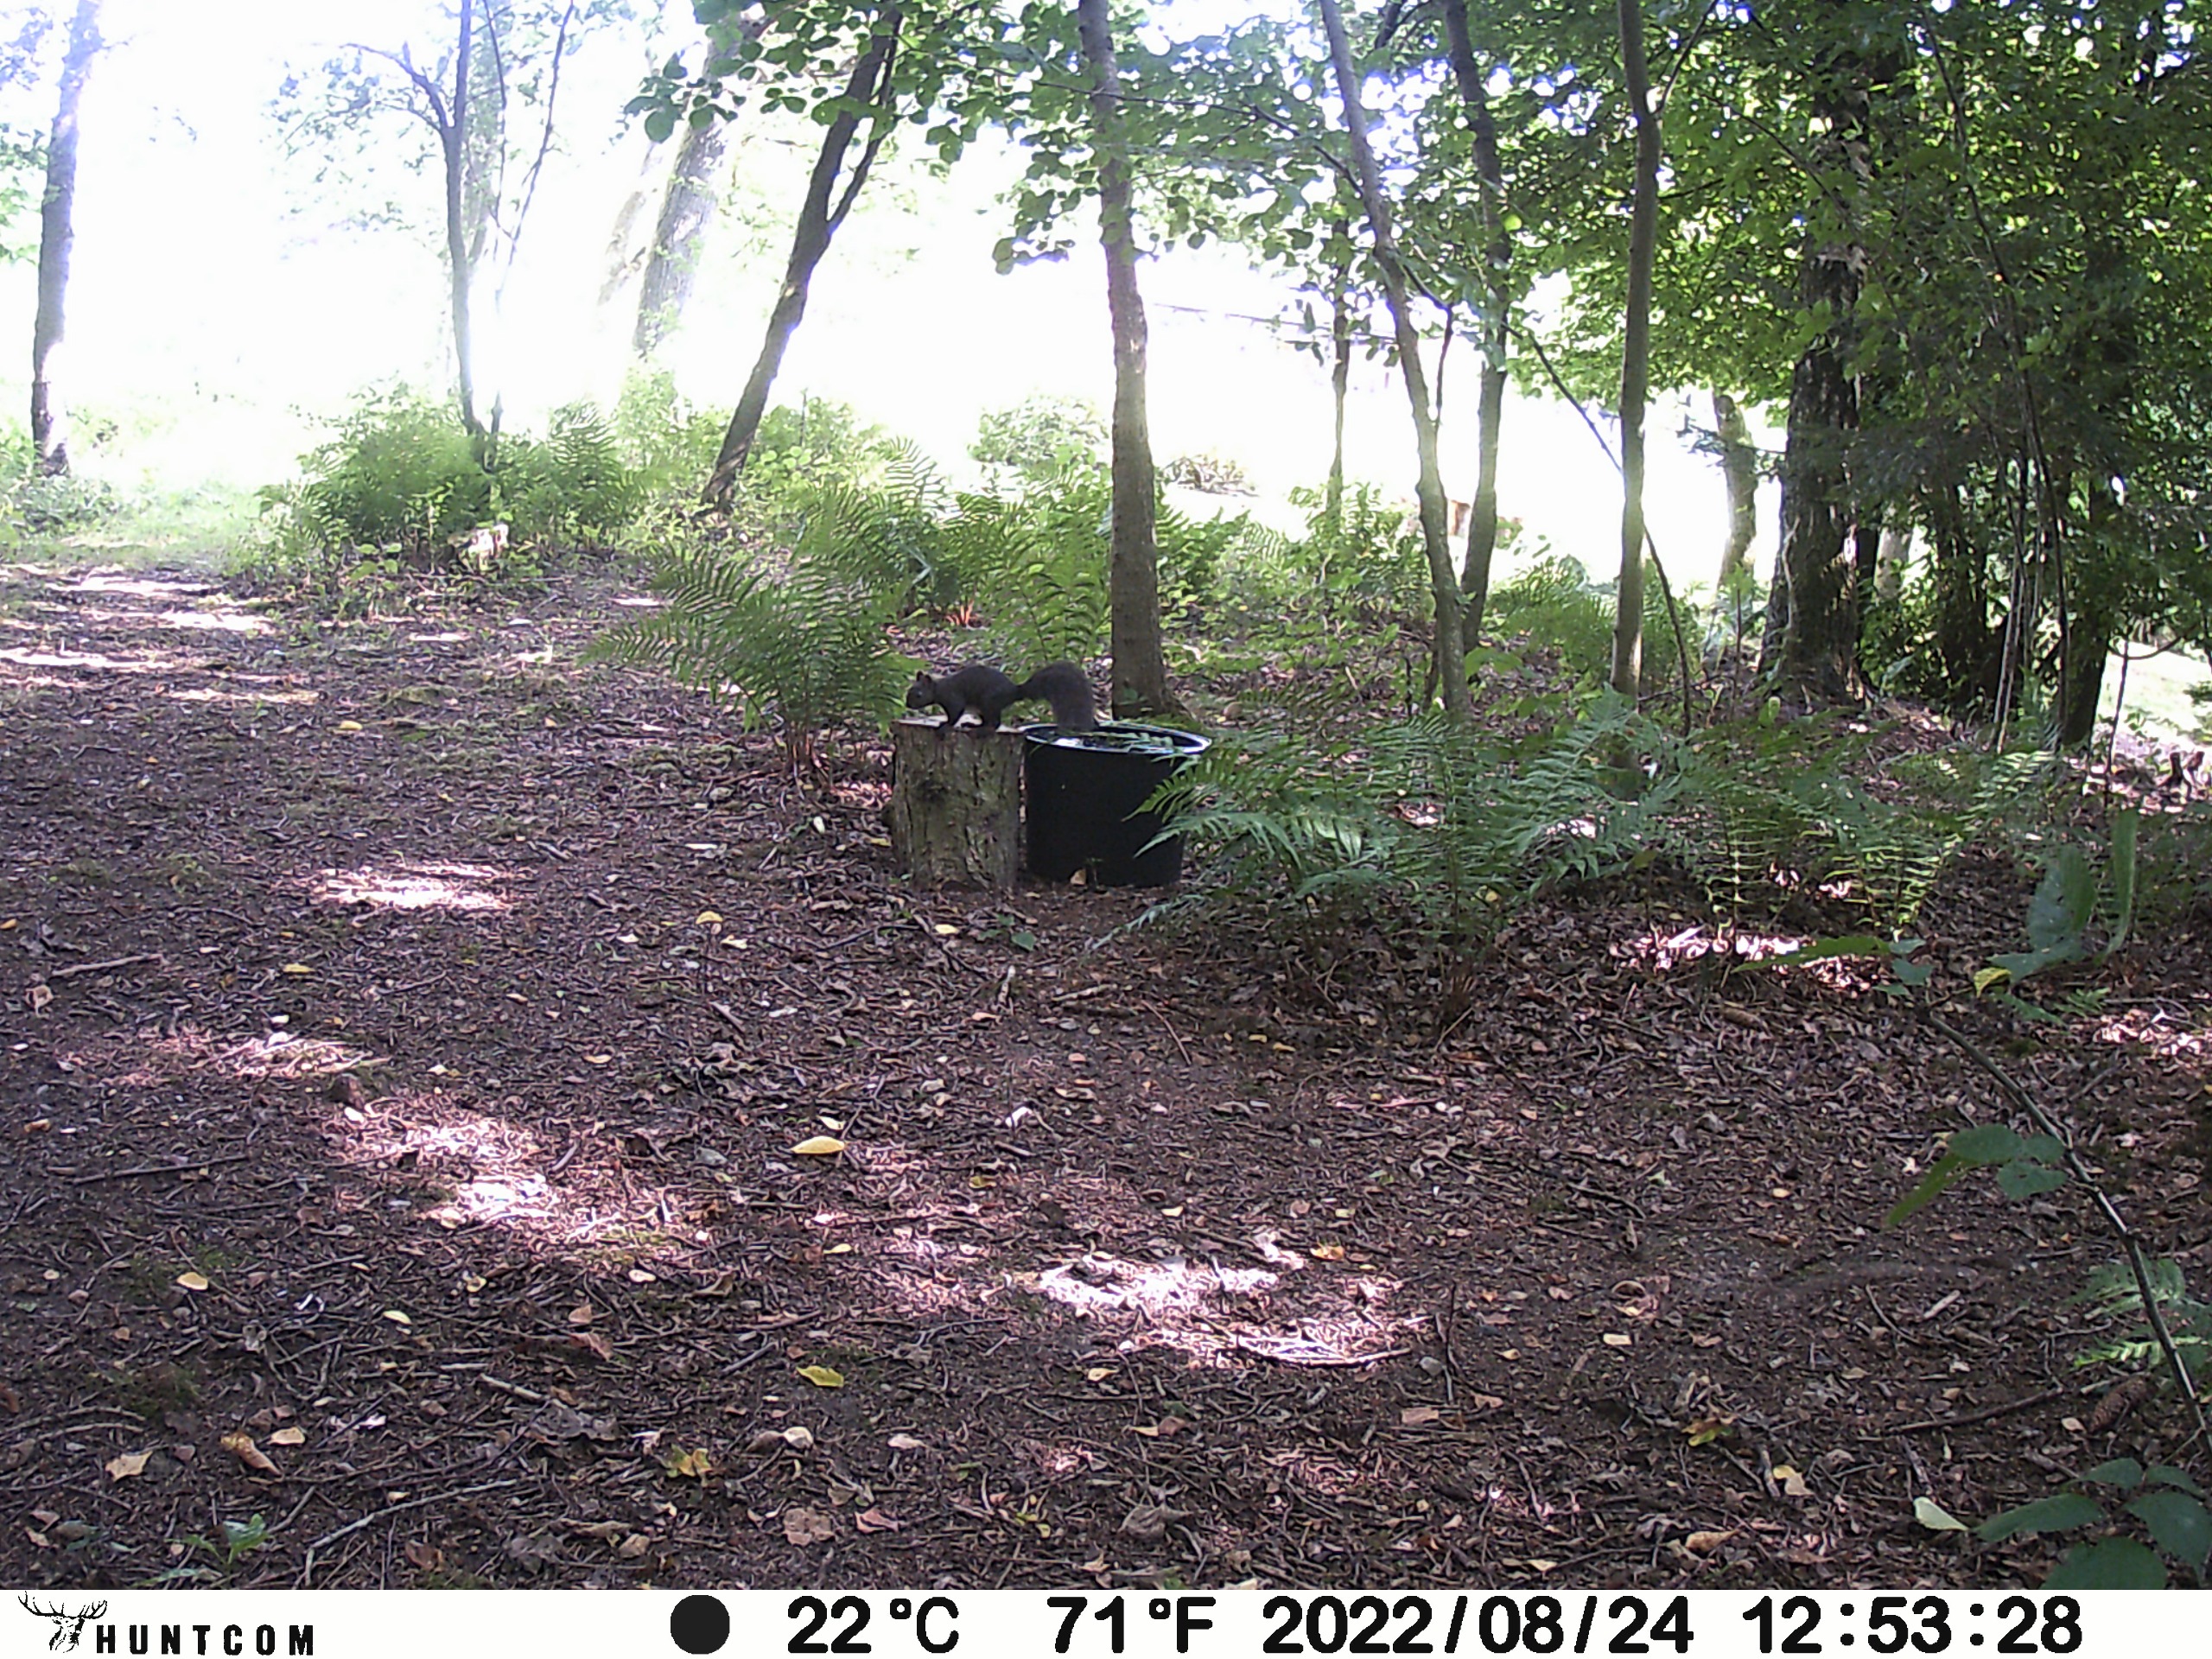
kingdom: Animalia
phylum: Chordata
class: Mammalia
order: Rodentia
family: Sciuridae
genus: Sciurus
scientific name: Sciurus vulgaris
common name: Egern
